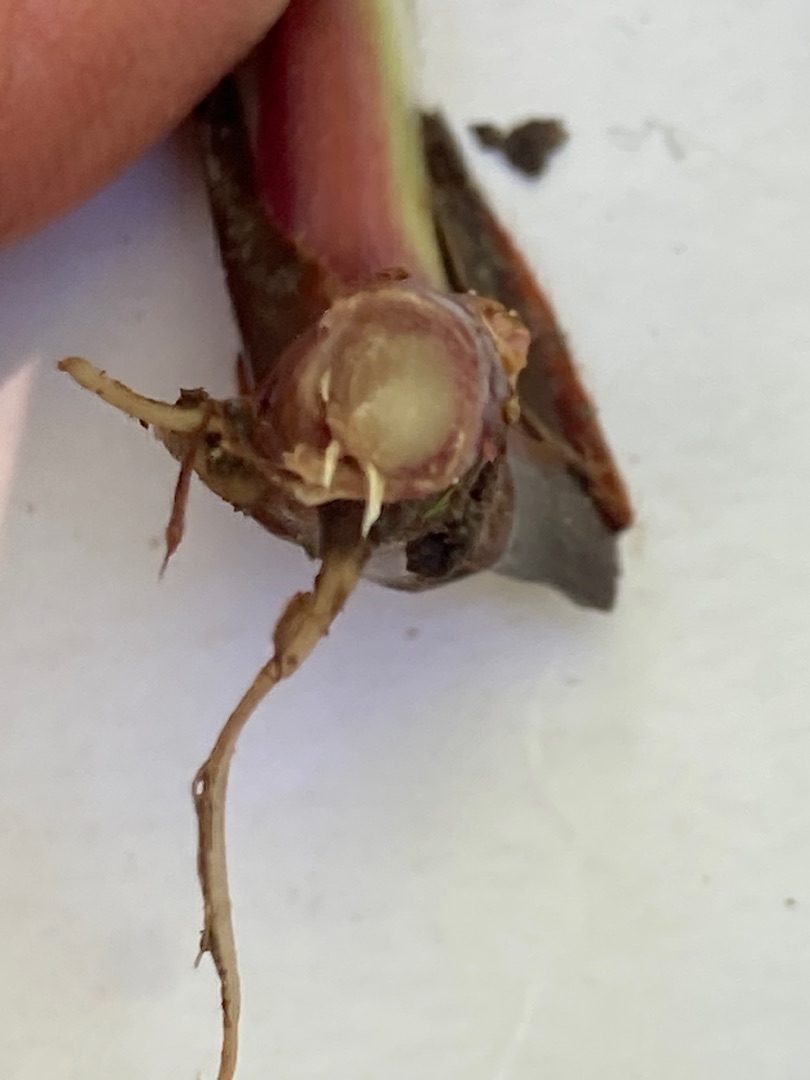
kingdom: Plantae
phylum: Tracheophyta
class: Magnoliopsida
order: Rosales
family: Rosaceae
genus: Geum
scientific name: Geum rivale
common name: Eng-nellikerod
